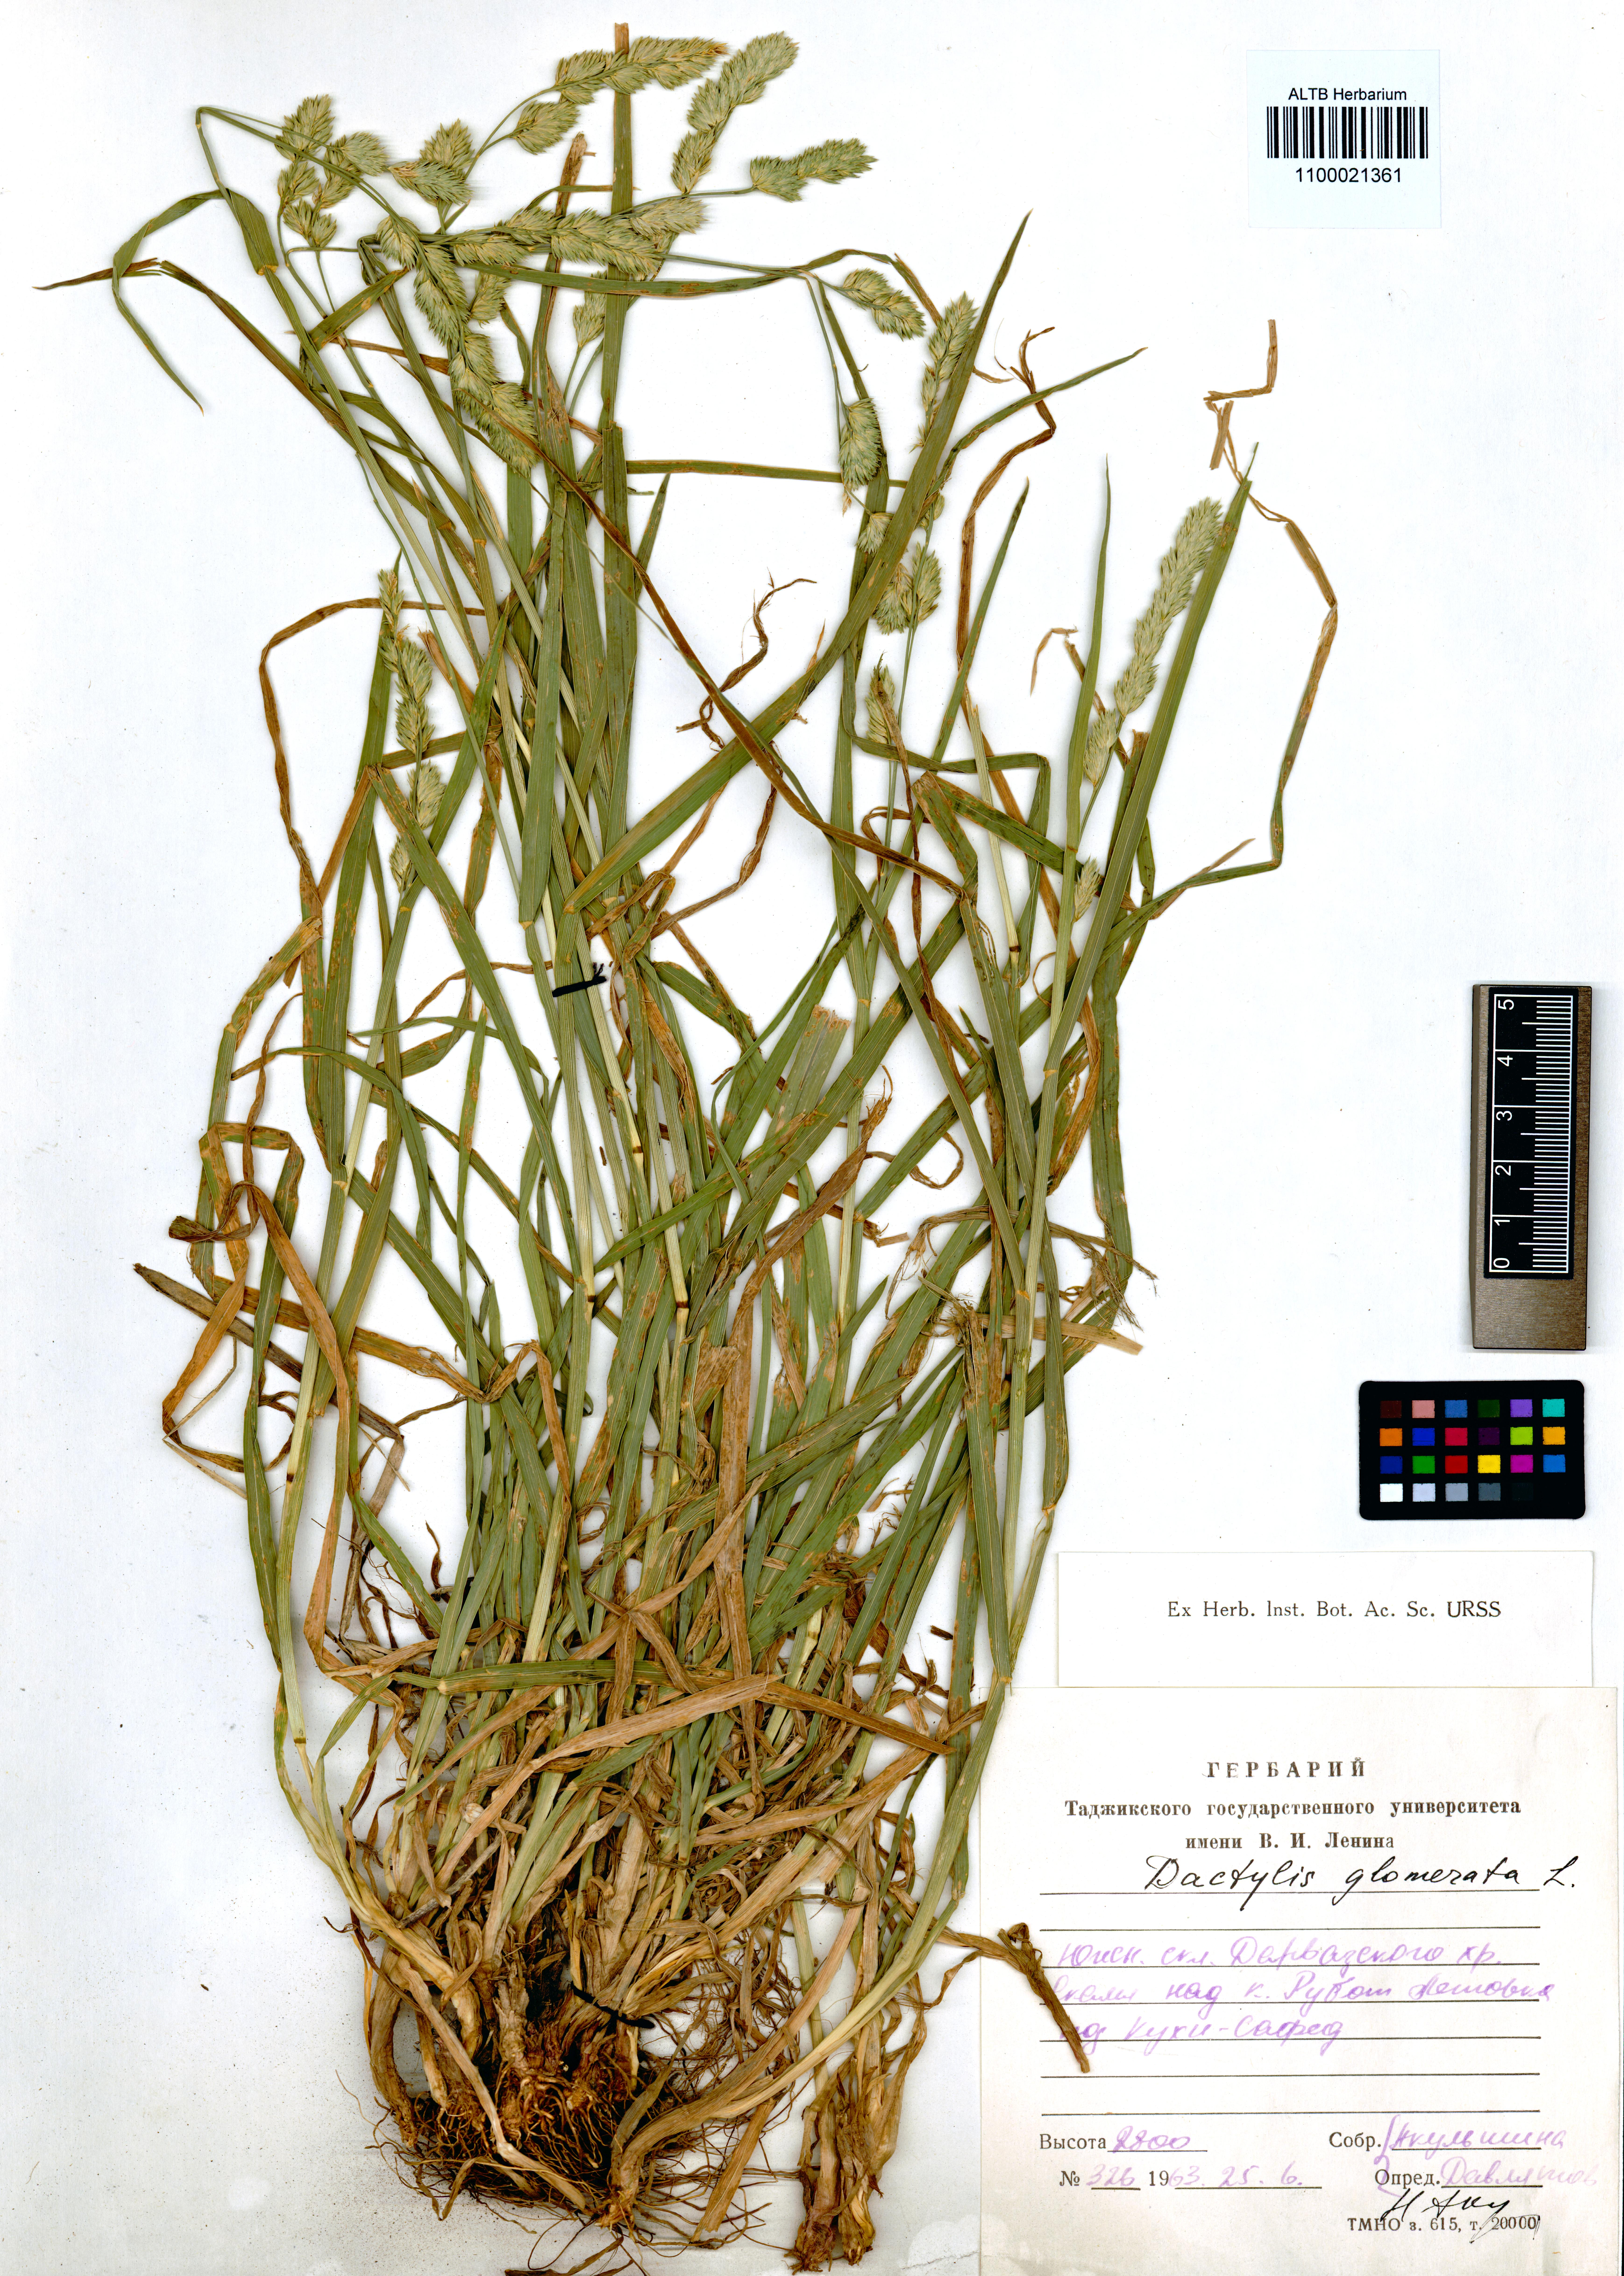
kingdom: Plantae
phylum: Tracheophyta
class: Liliopsida
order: Poales
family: Poaceae
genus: Dactylis
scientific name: Dactylis glomerata
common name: Orchardgrass
